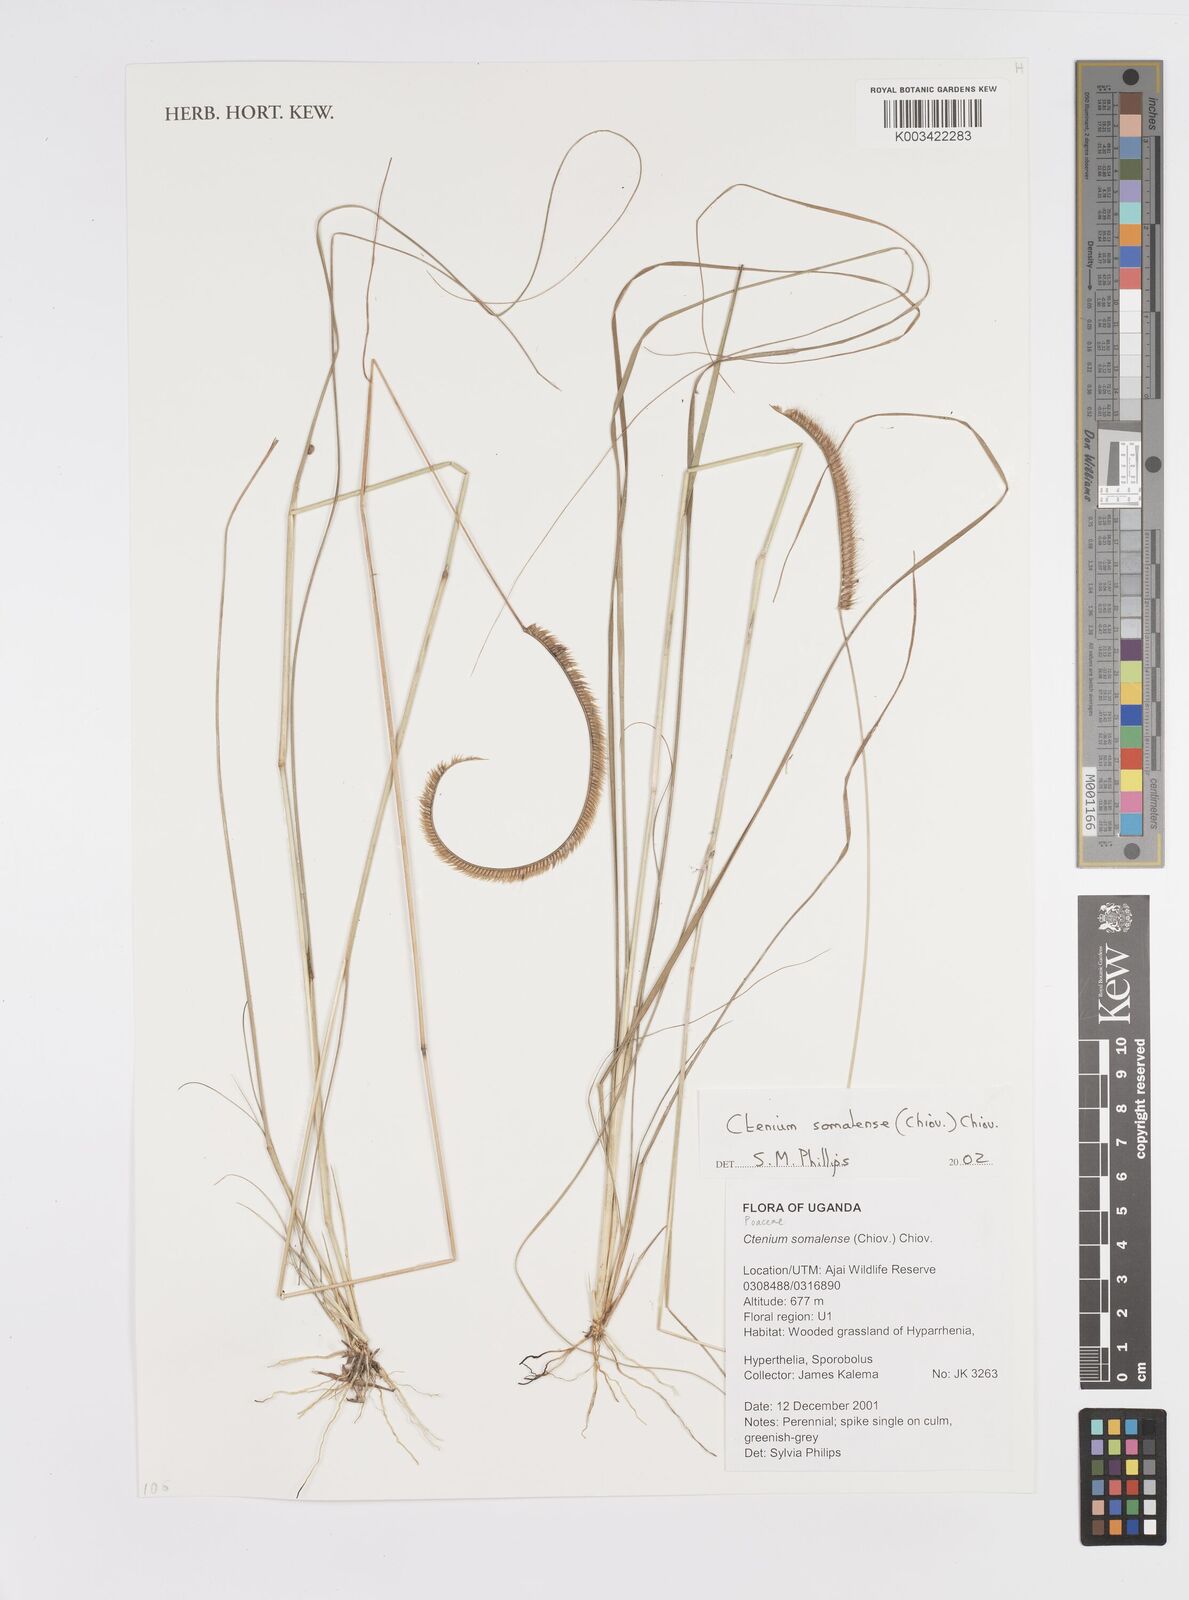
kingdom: Plantae
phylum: Tracheophyta
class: Liliopsida
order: Poales
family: Poaceae
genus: Ctenium
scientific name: Ctenium concinnum
